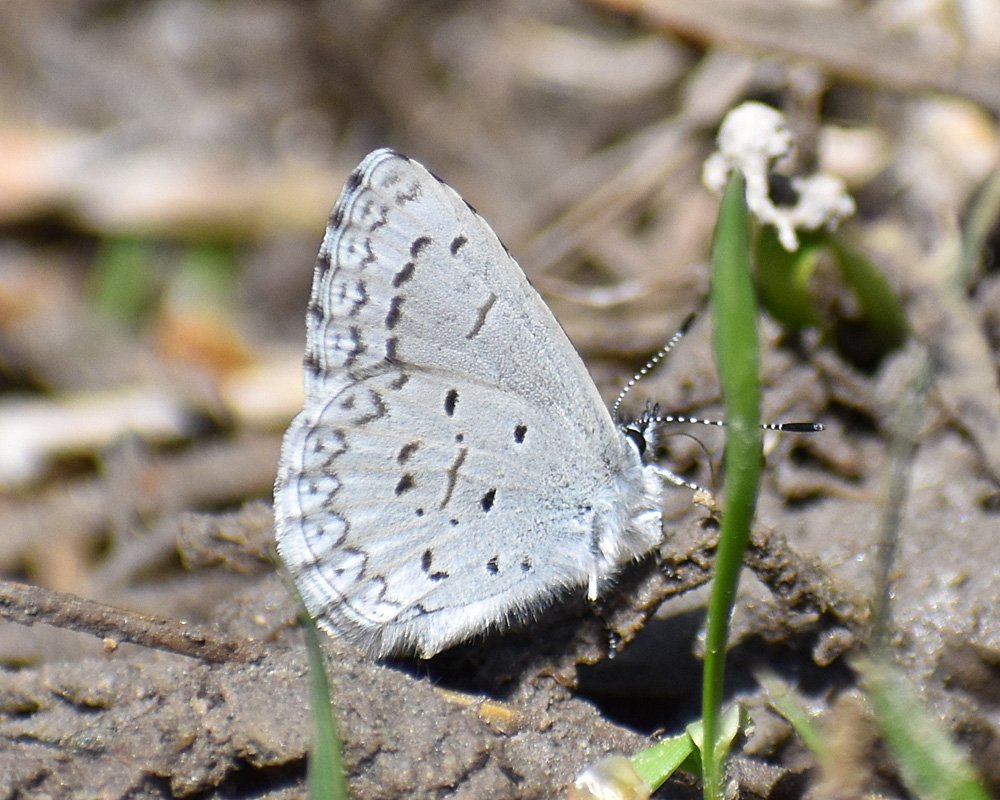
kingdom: Animalia
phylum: Arthropoda
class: Insecta
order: Lepidoptera
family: Lycaenidae
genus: Celastrina
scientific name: Celastrina ladon
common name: Echo Azure
